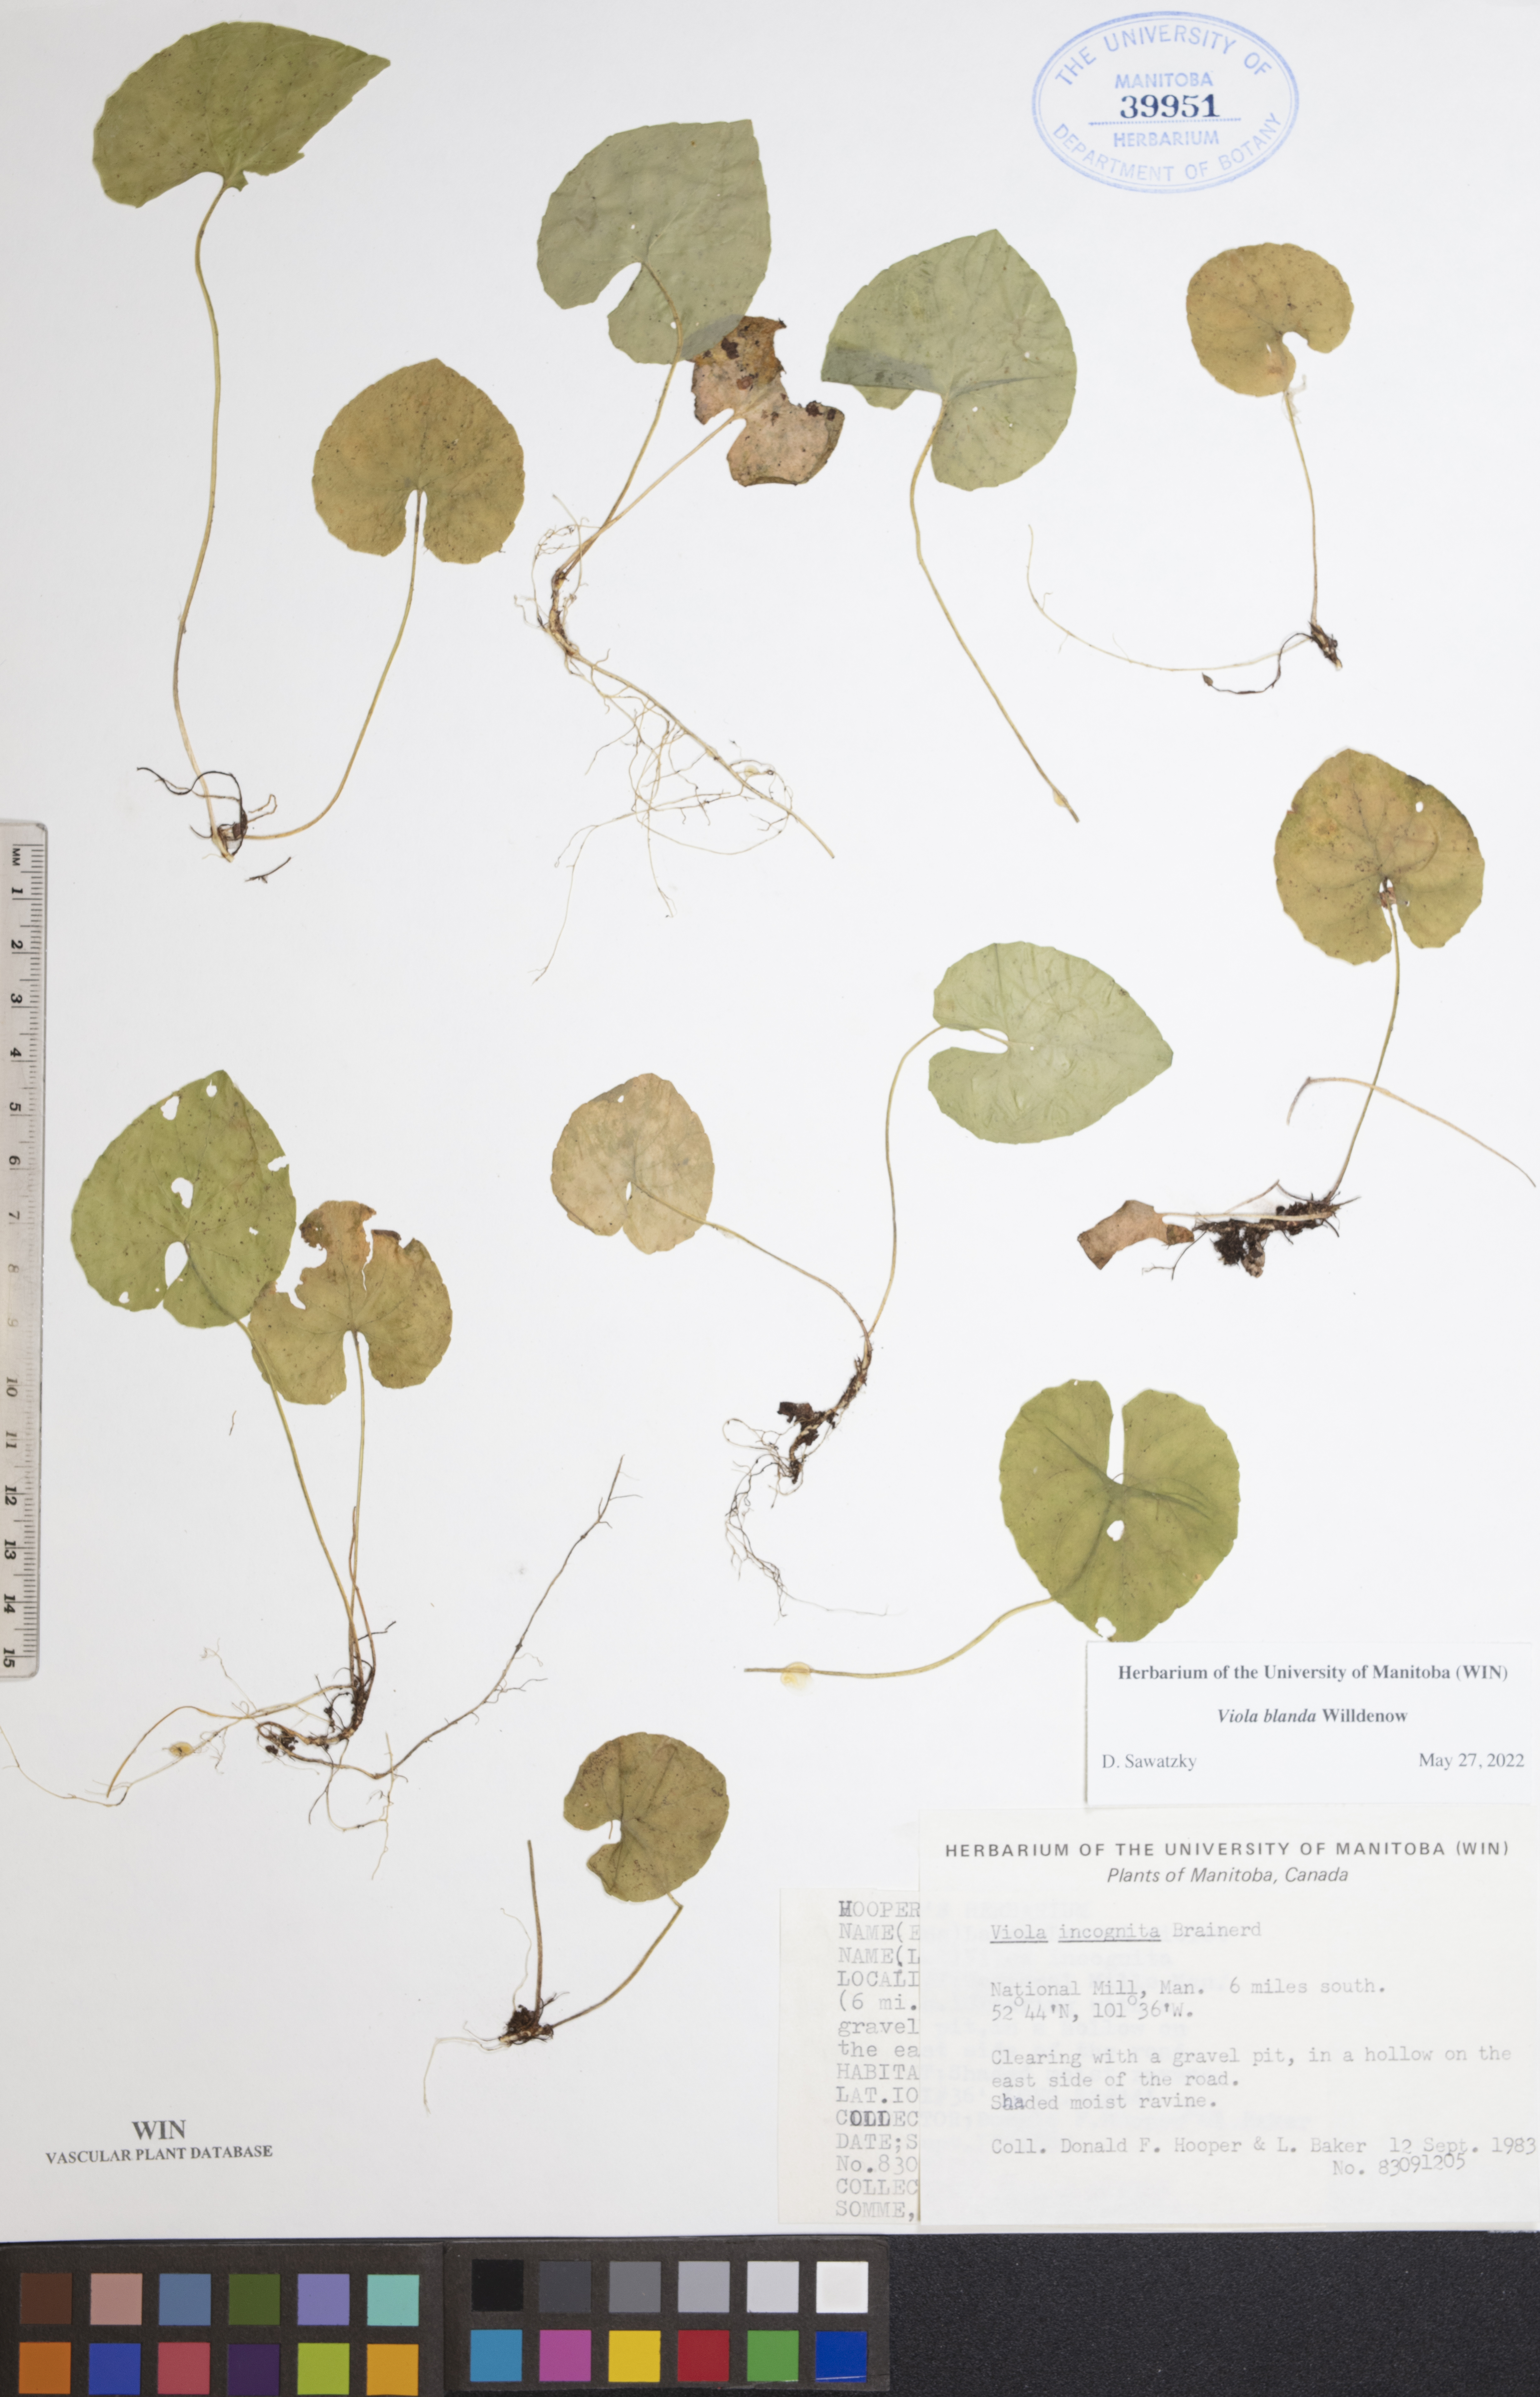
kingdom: Plantae
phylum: Tracheophyta
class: Magnoliopsida
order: Malpighiales
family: Violaceae
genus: Viola
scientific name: Viola blanda
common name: Sweet white violet
